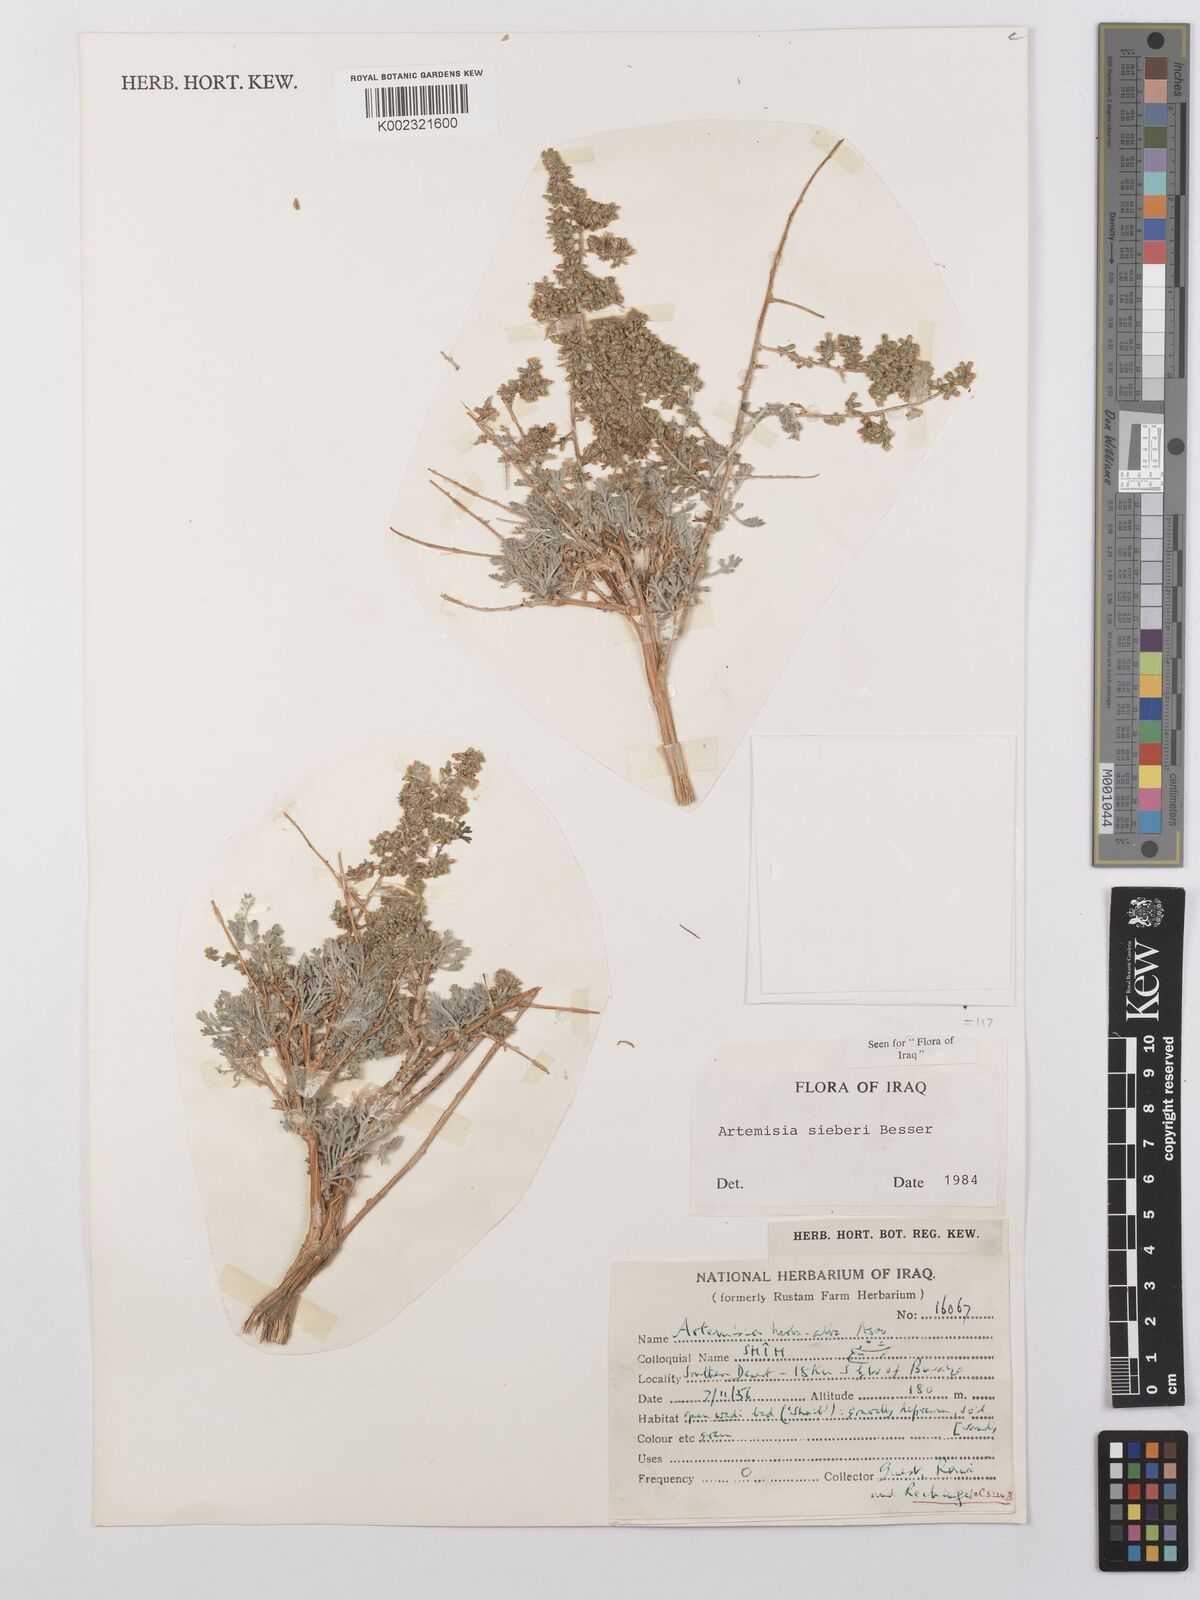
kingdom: Plantae
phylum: Tracheophyta
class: Magnoliopsida
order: Asterales
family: Asteraceae
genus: Artemisia
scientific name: Artemisia sieberi
